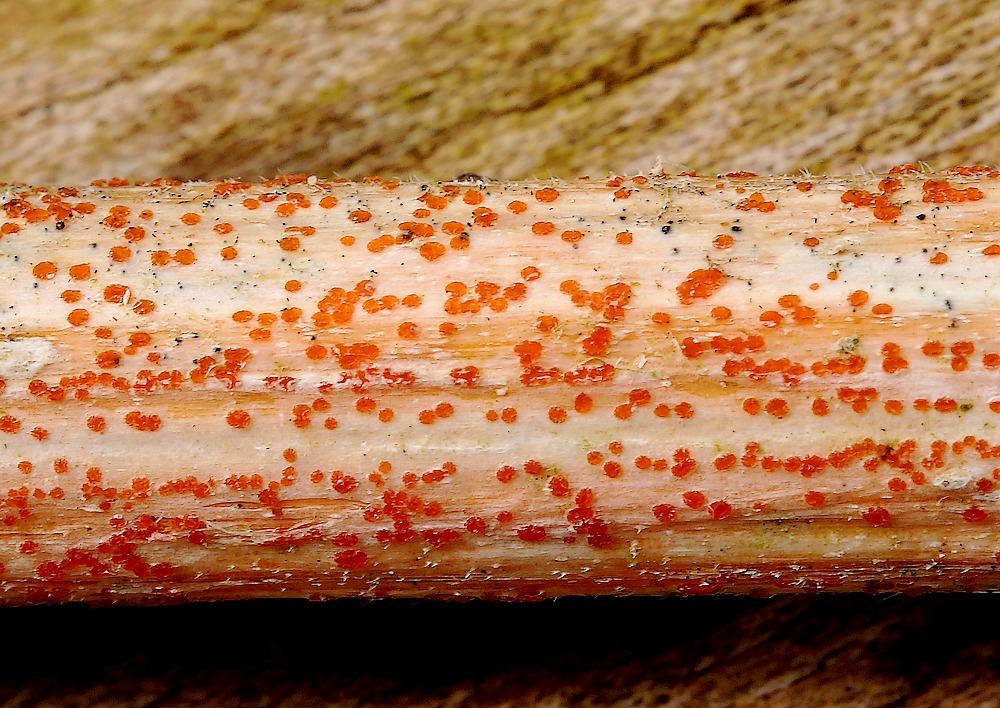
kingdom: Fungi
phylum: Ascomycota
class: Leotiomycetes
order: Helotiales
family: Calloriaceae
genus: Calloria
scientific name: Calloria urticae
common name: nælde-orangeskive
